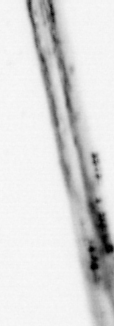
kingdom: Animalia
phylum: Chordata
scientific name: Chordata
